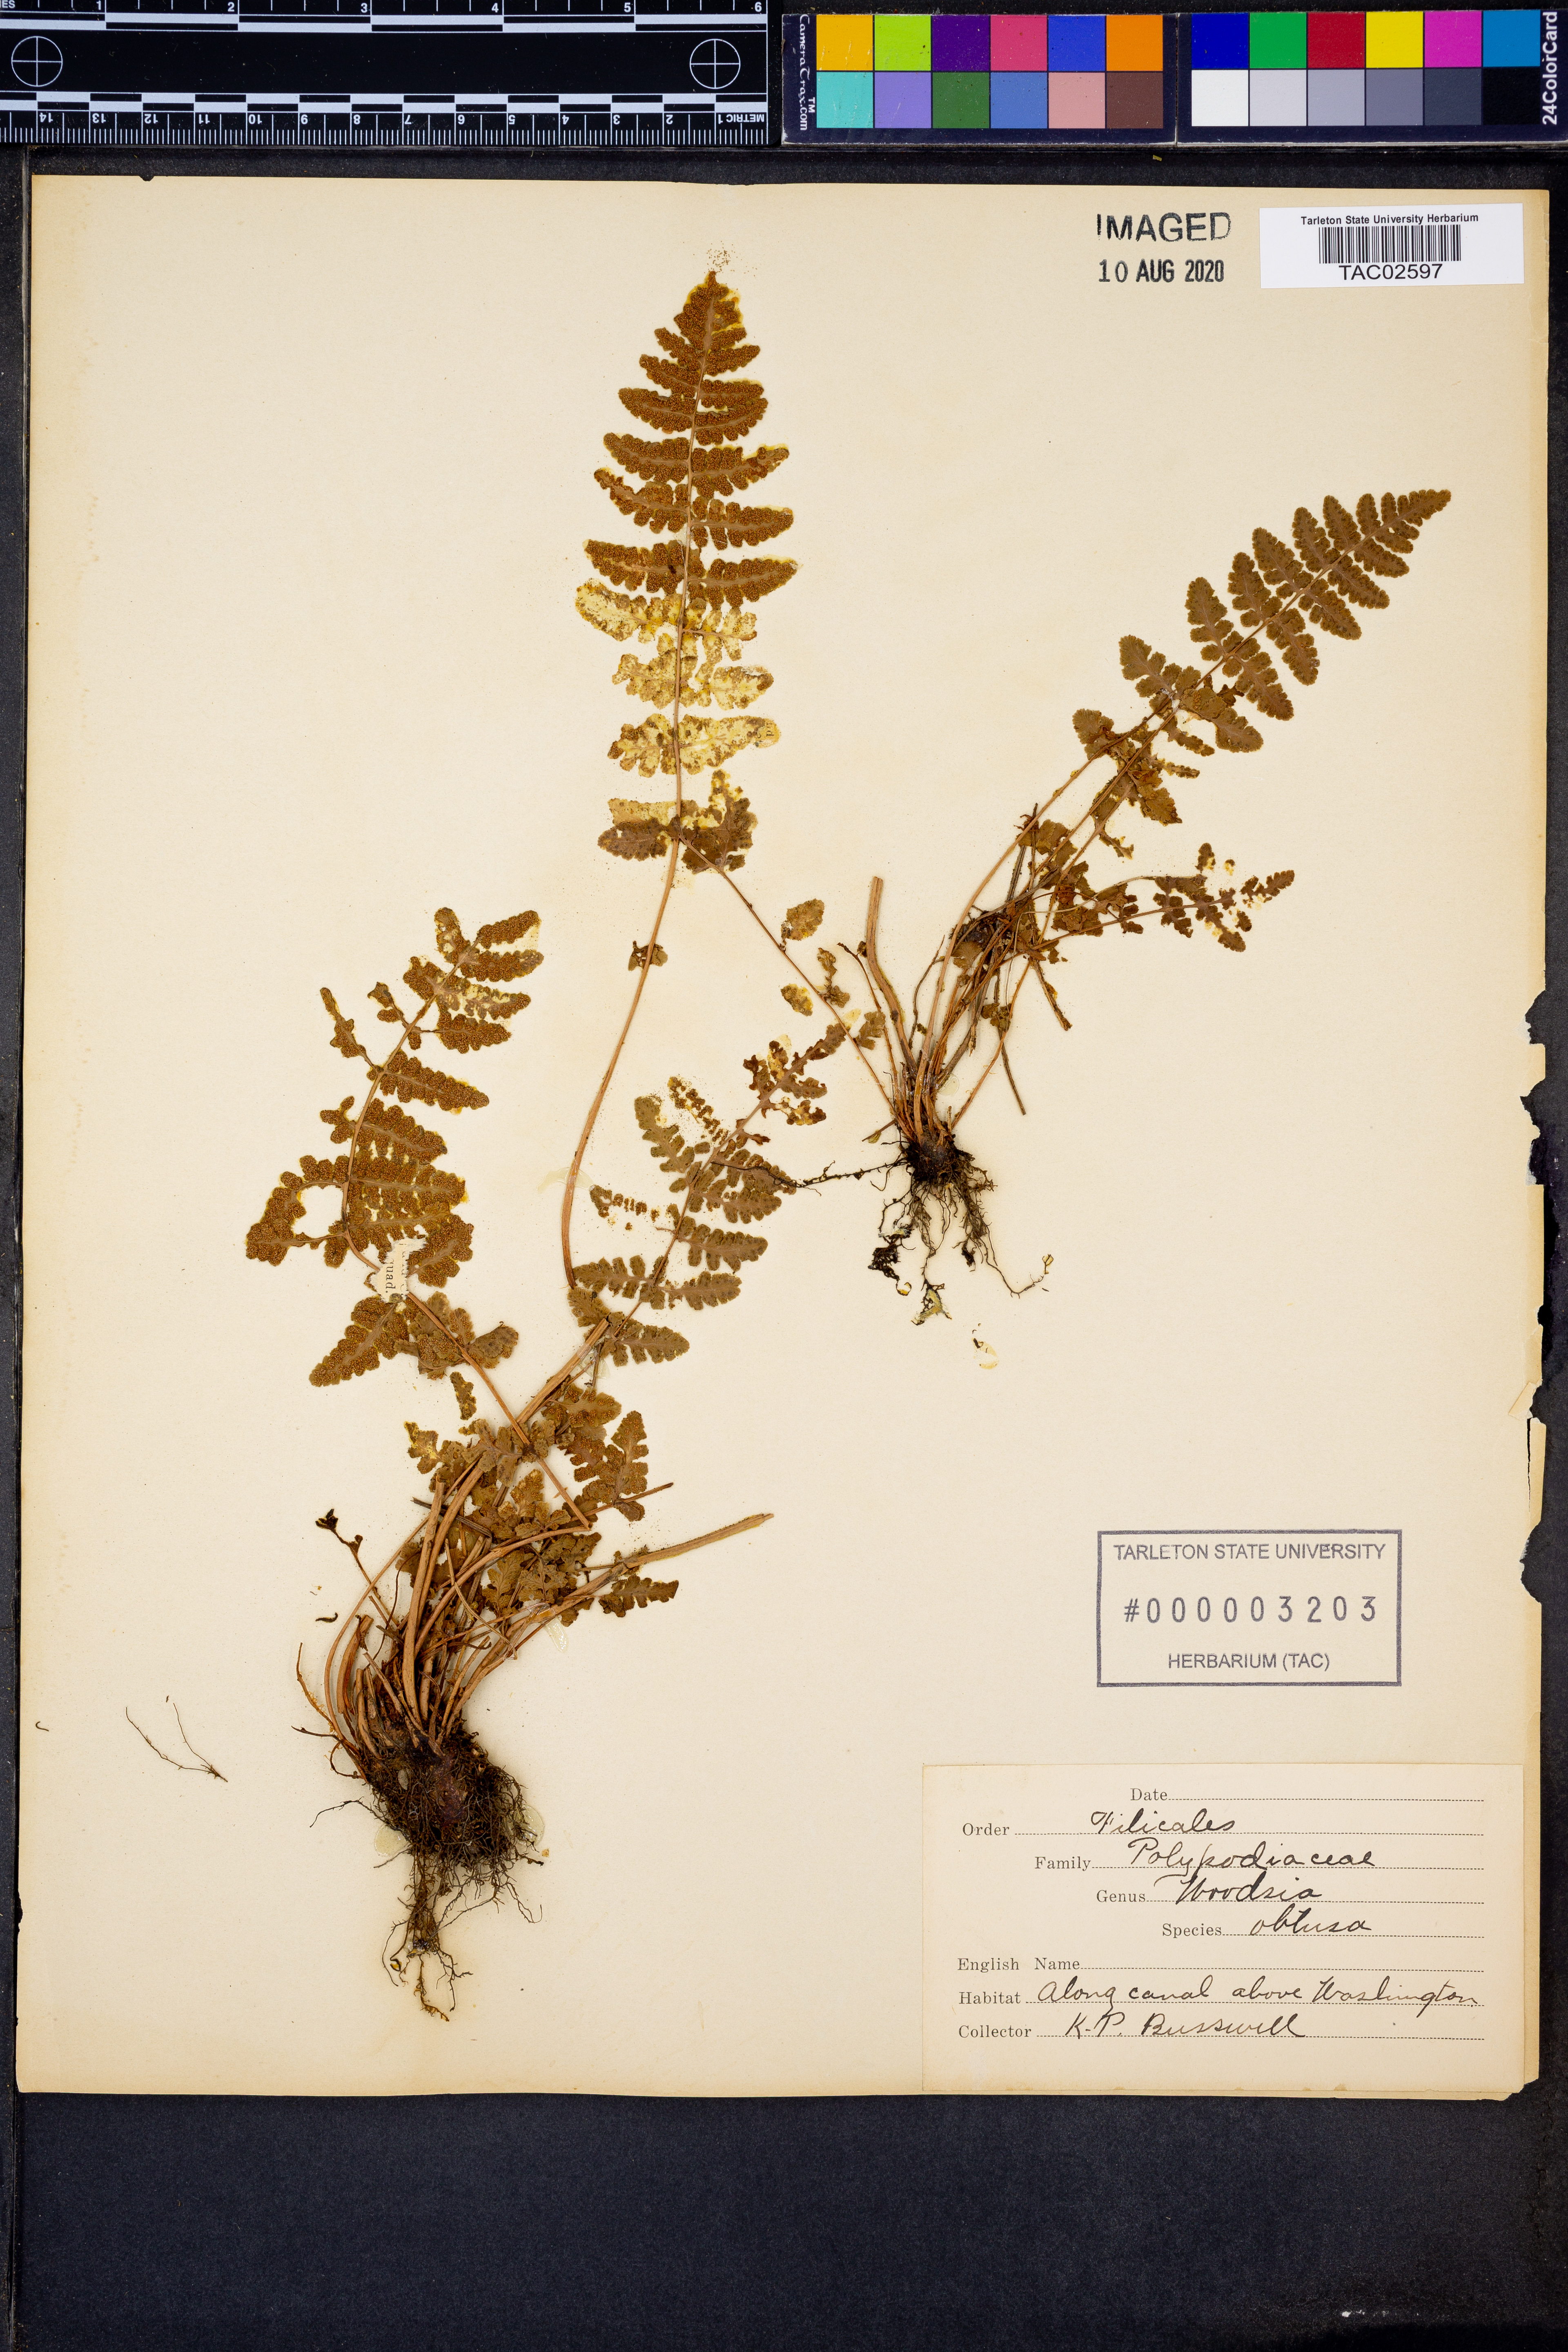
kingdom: Plantae
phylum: Tracheophyta
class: Polypodiopsida
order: Polypodiales
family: Woodsiaceae
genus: Physematium
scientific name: Physematium obtusum
